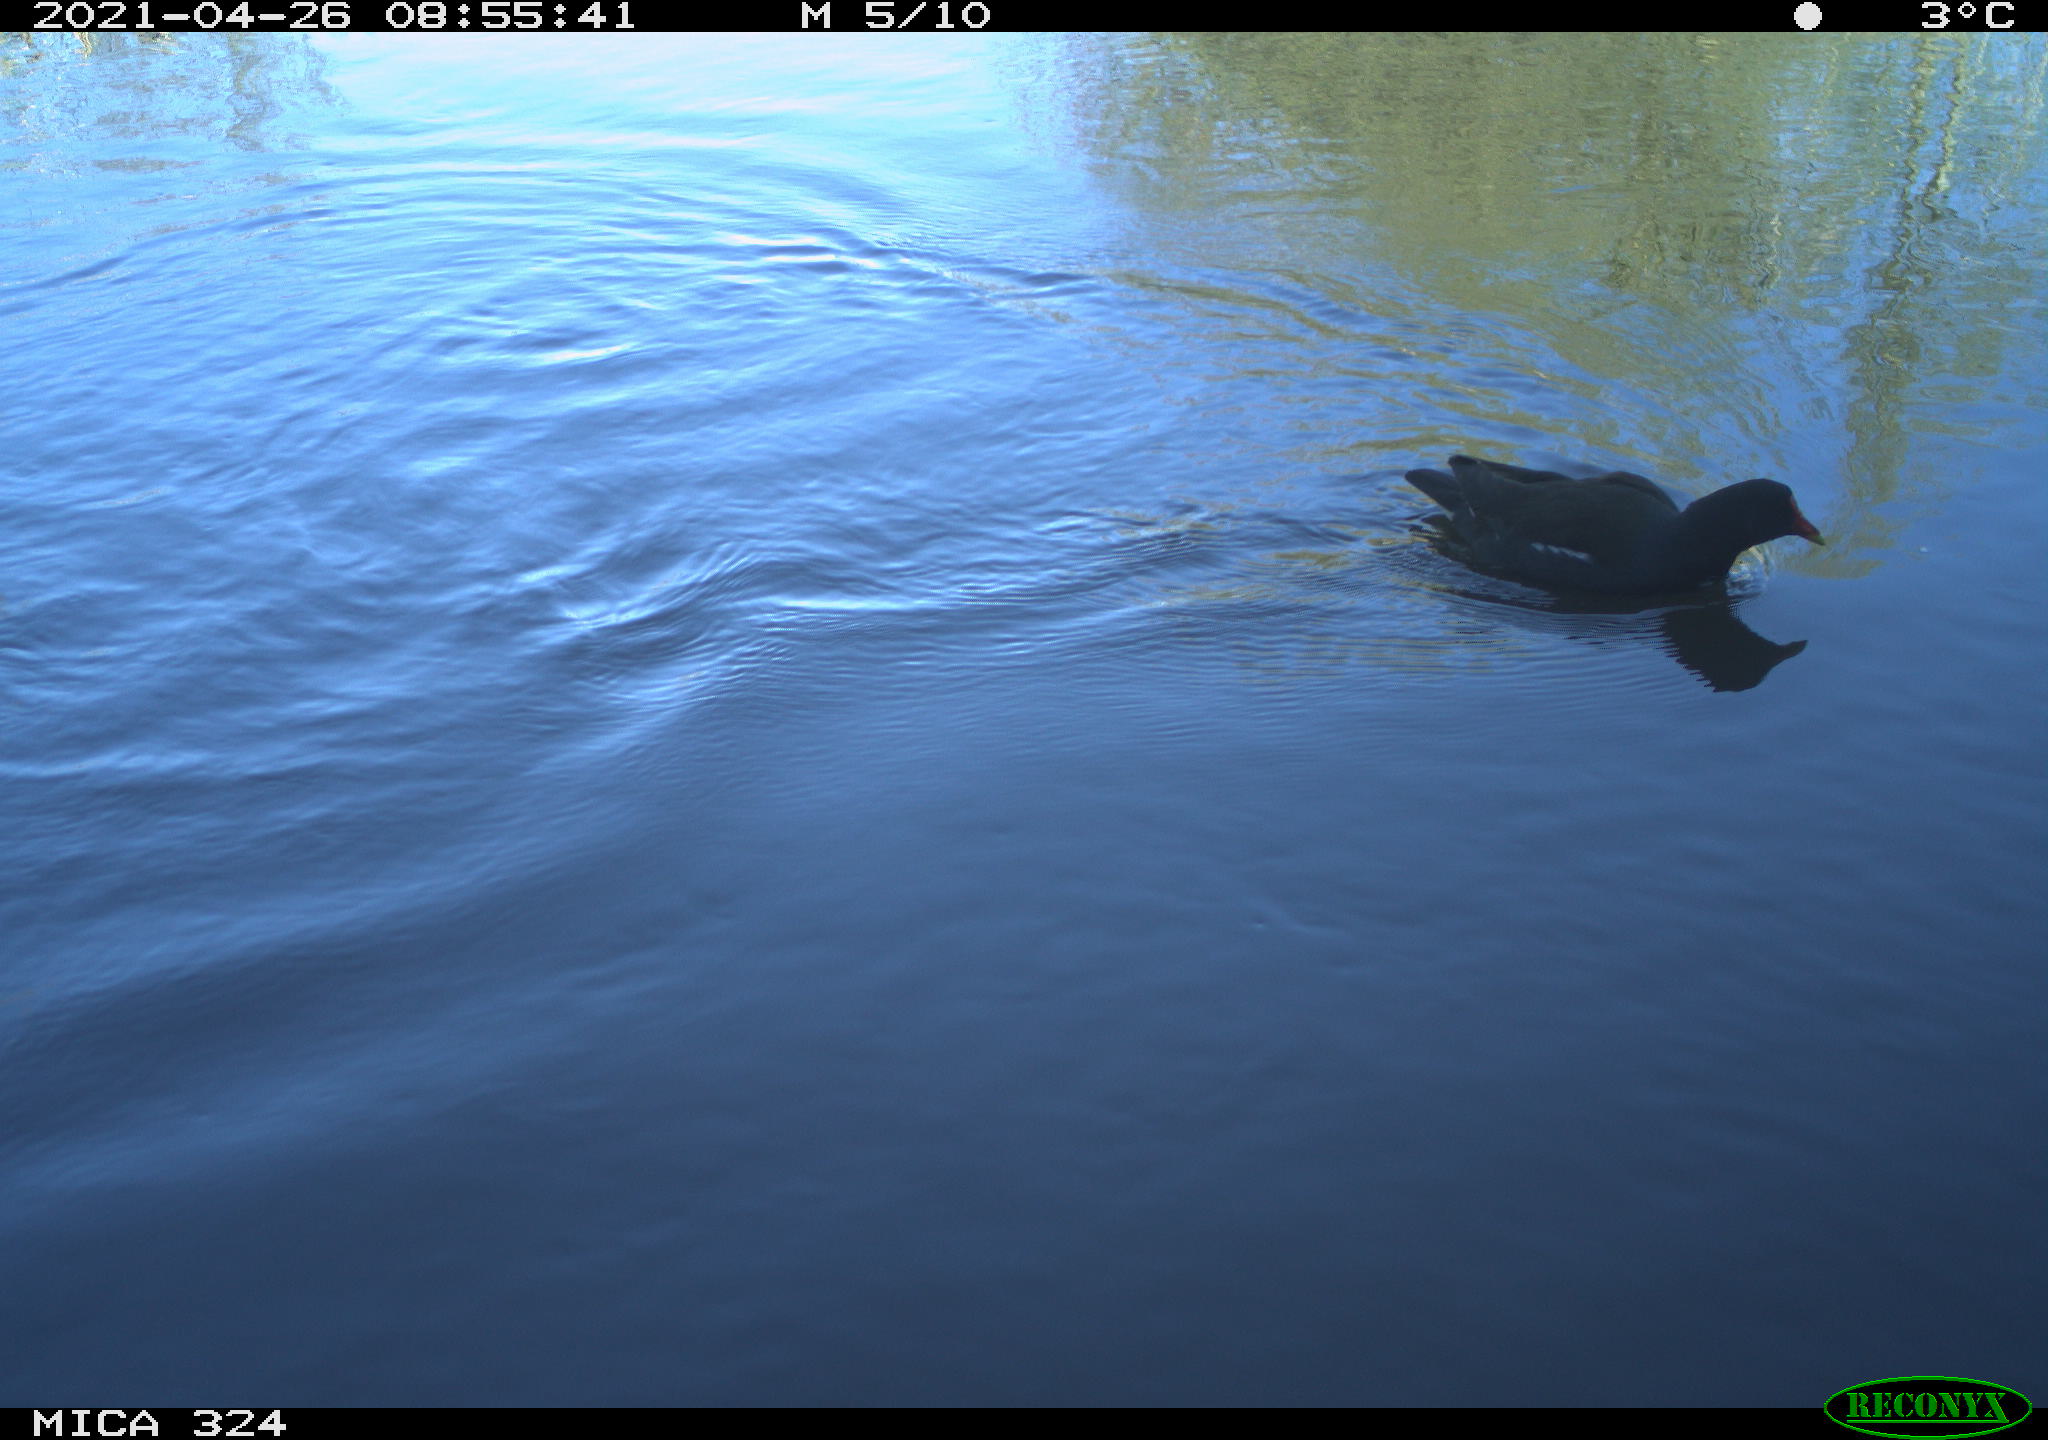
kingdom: Animalia
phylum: Chordata
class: Aves
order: Gruiformes
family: Rallidae
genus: Gallinula
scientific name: Gallinula chloropus
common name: Common moorhen
